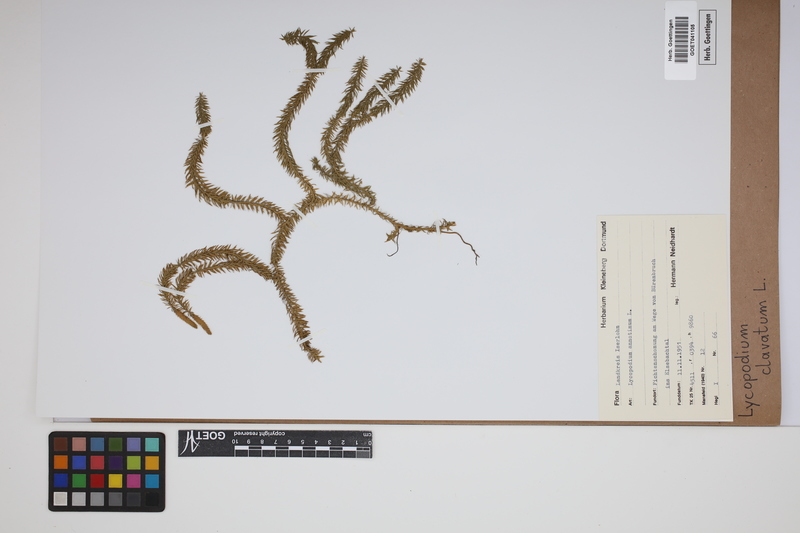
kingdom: Plantae
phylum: Tracheophyta
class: Lycopodiopsida
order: Lycopodiales
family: Lycopodiaceae
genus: Lycopodium
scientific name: Lycopodium clavatum
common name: Stag's-horn clubmoss
